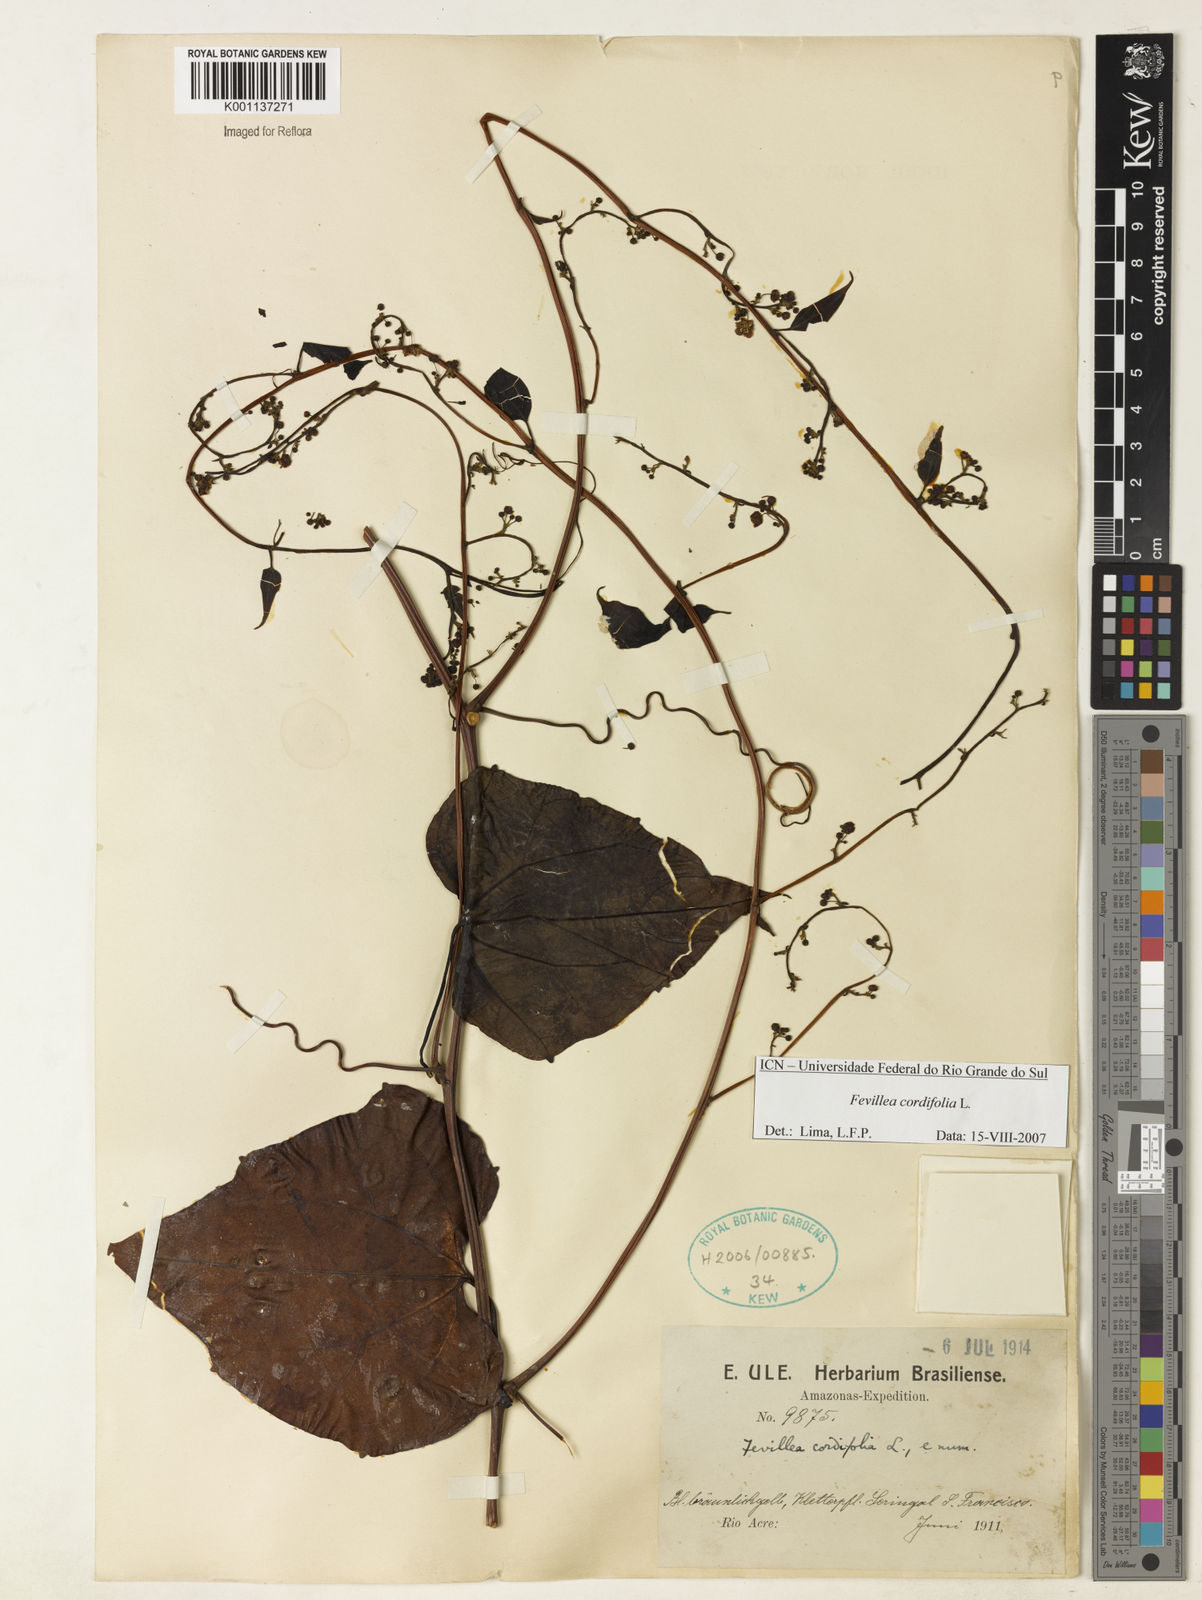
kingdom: Plantae
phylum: Tracheophyta
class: Magnoliopsida
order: Cucurbitales
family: Cucurbitaceae
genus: Fevillea
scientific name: Fevillea cordifolia
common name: Antidote-vine
